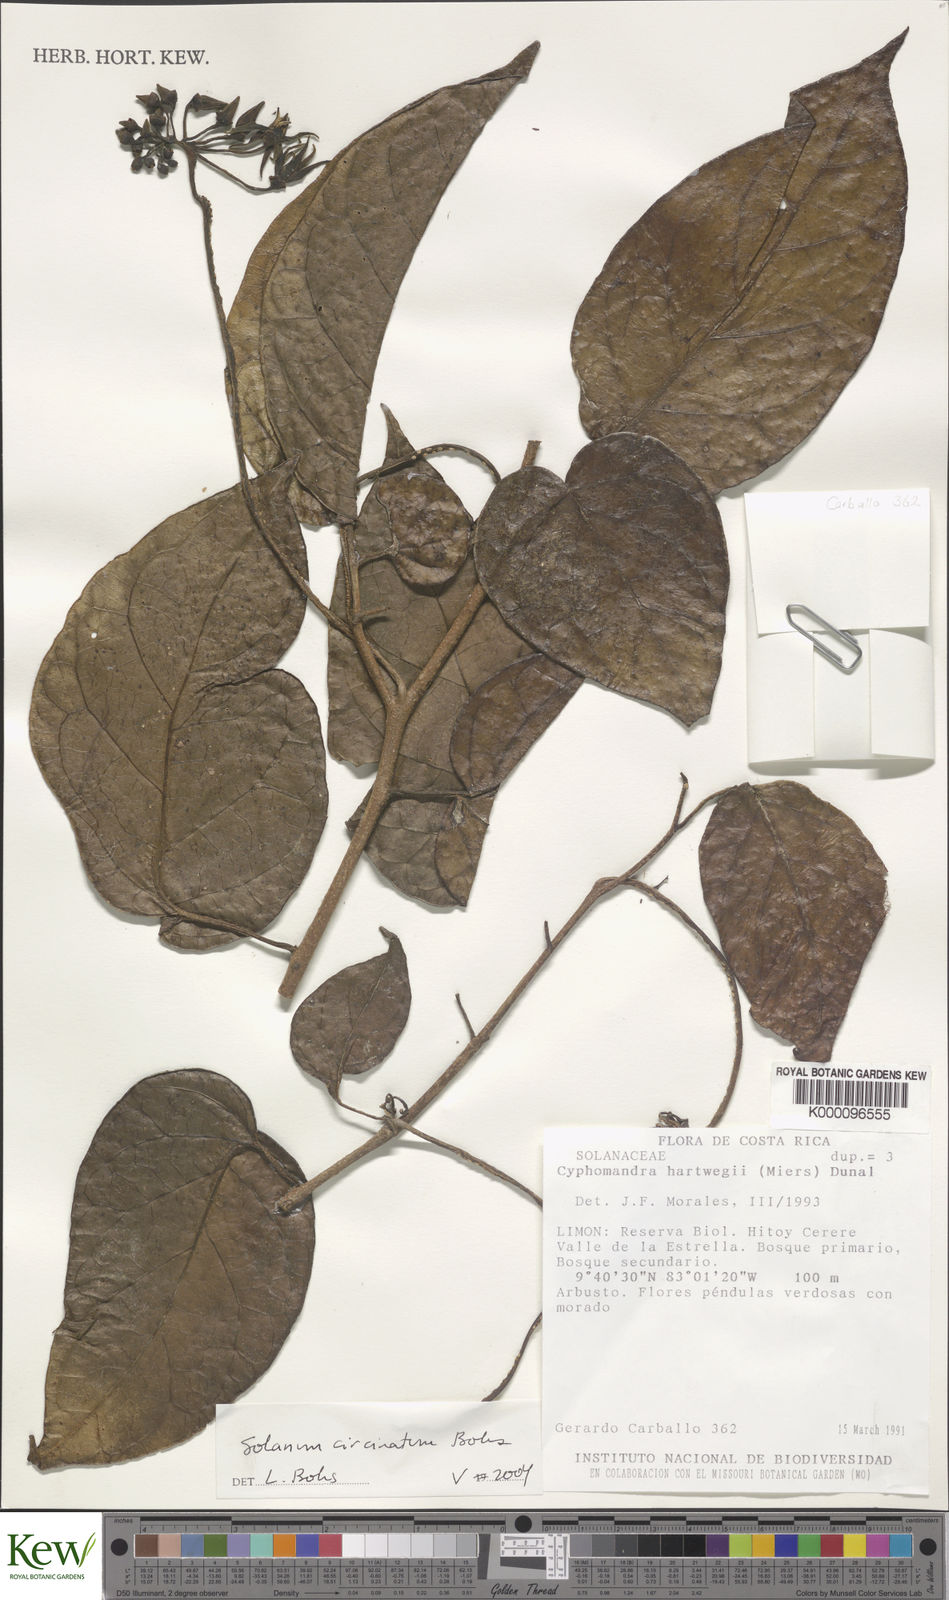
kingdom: Plantae
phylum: Tracheophyta
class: Magnoliopsida
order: Solanales
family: Solanaceae
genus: Solanum
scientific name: Solanum splendens
